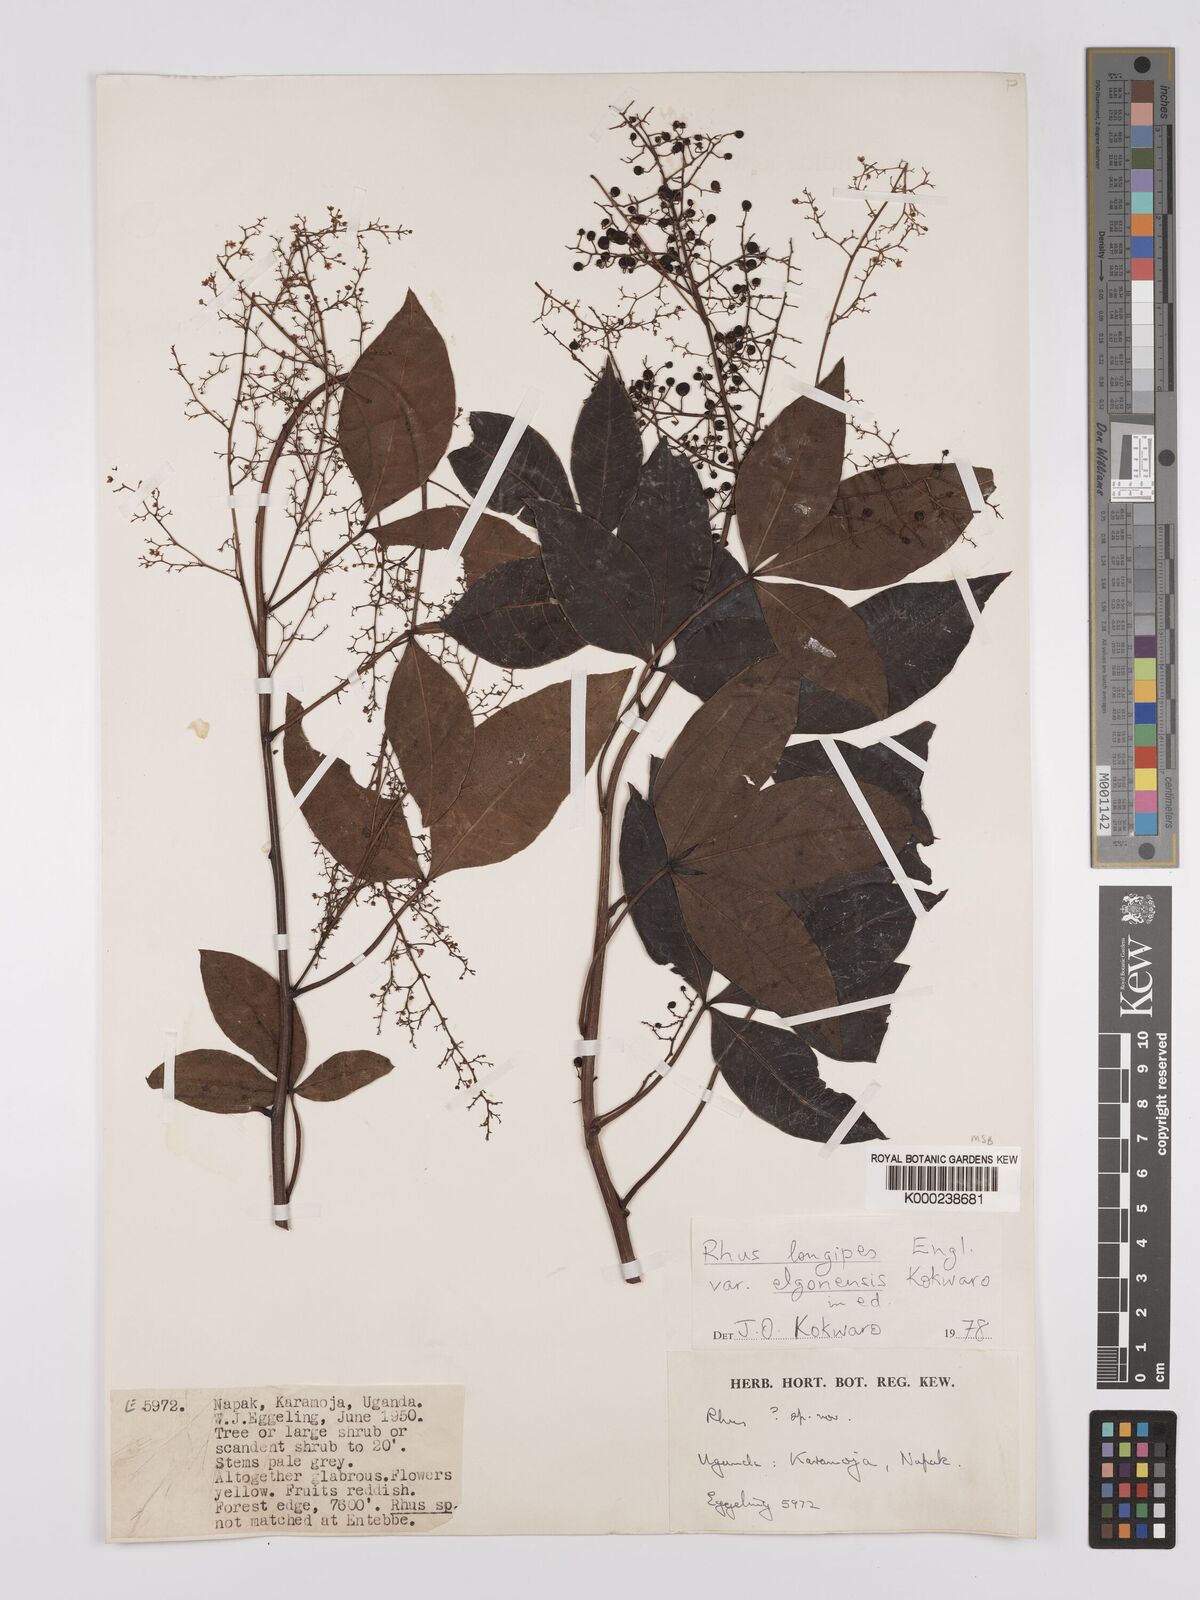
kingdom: Plantae
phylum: Tracheophyta
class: Magnoliopsida
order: Sapindales
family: Anacardiaceae
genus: Searsia
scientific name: Searsia longipes
